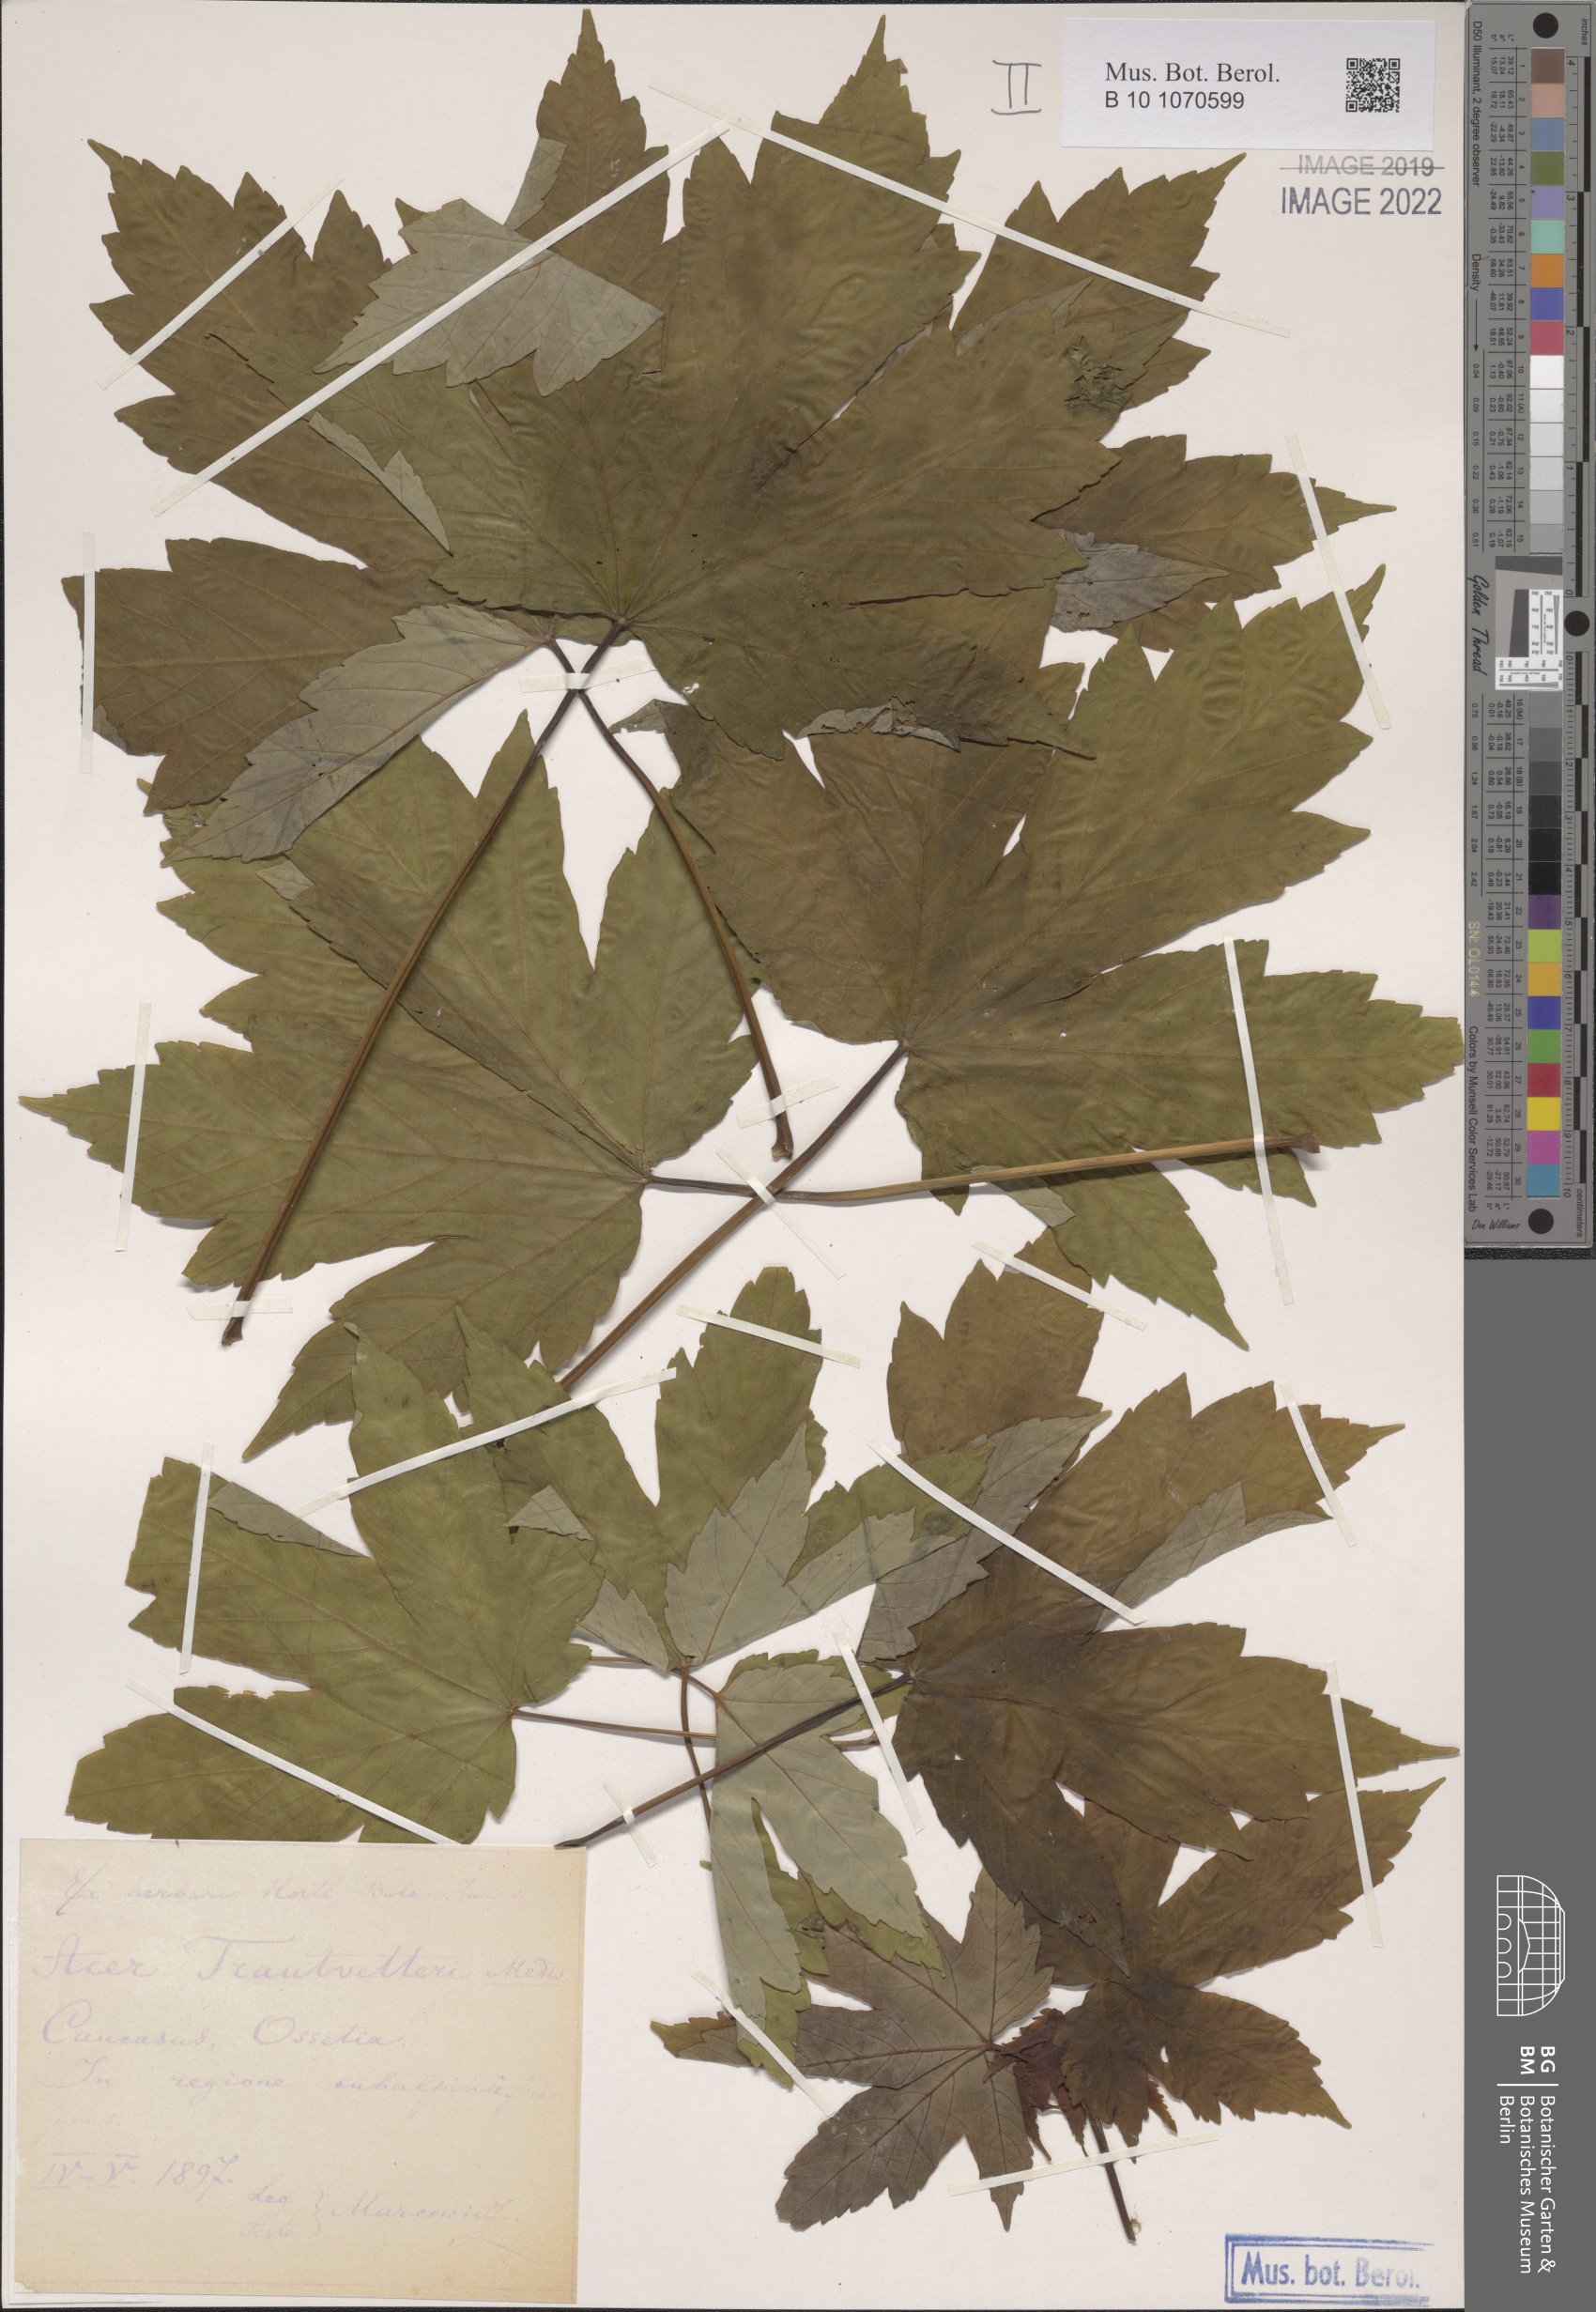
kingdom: Plantae
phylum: Tracheophyta
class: Magnoliopsida
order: Sapindales
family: Sapindaceae
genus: Acer
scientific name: Acer heldreichii
